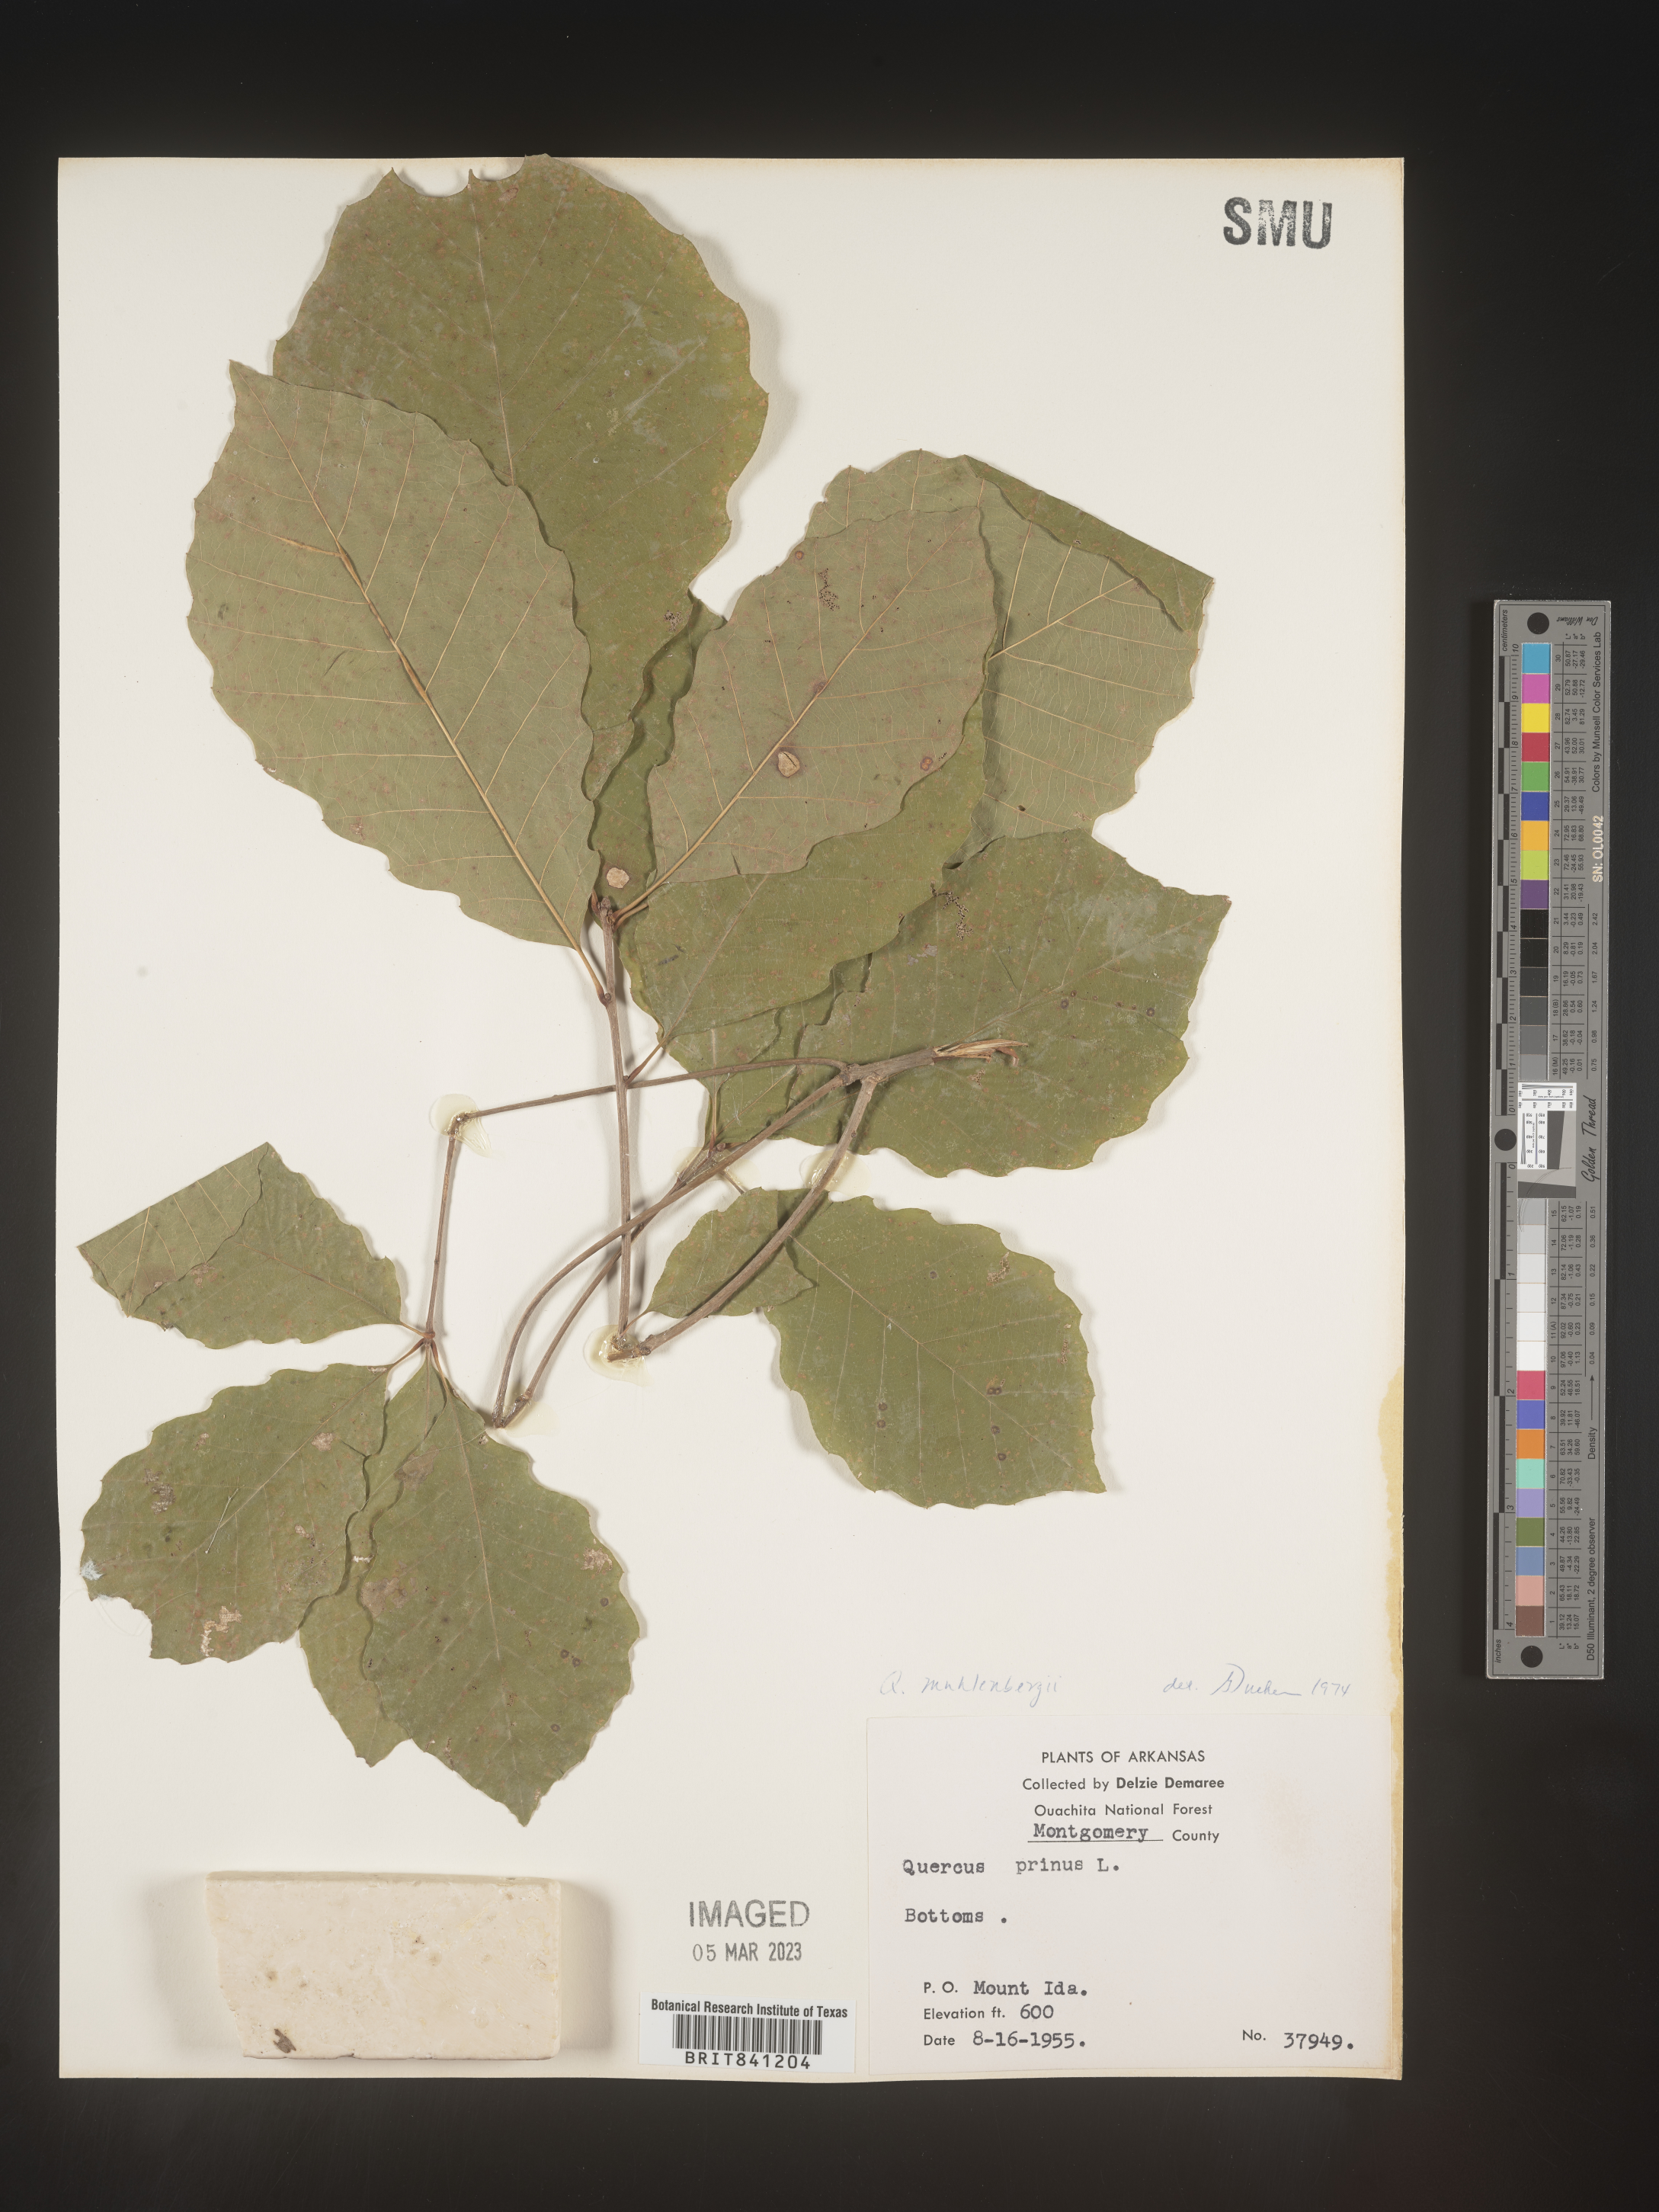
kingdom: Plantae
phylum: Tracheophyta
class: Magnoliopsida
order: Fagales
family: Fagaceae
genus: Quercus
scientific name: Quercus michauxii
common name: Swamp chestnut oak
